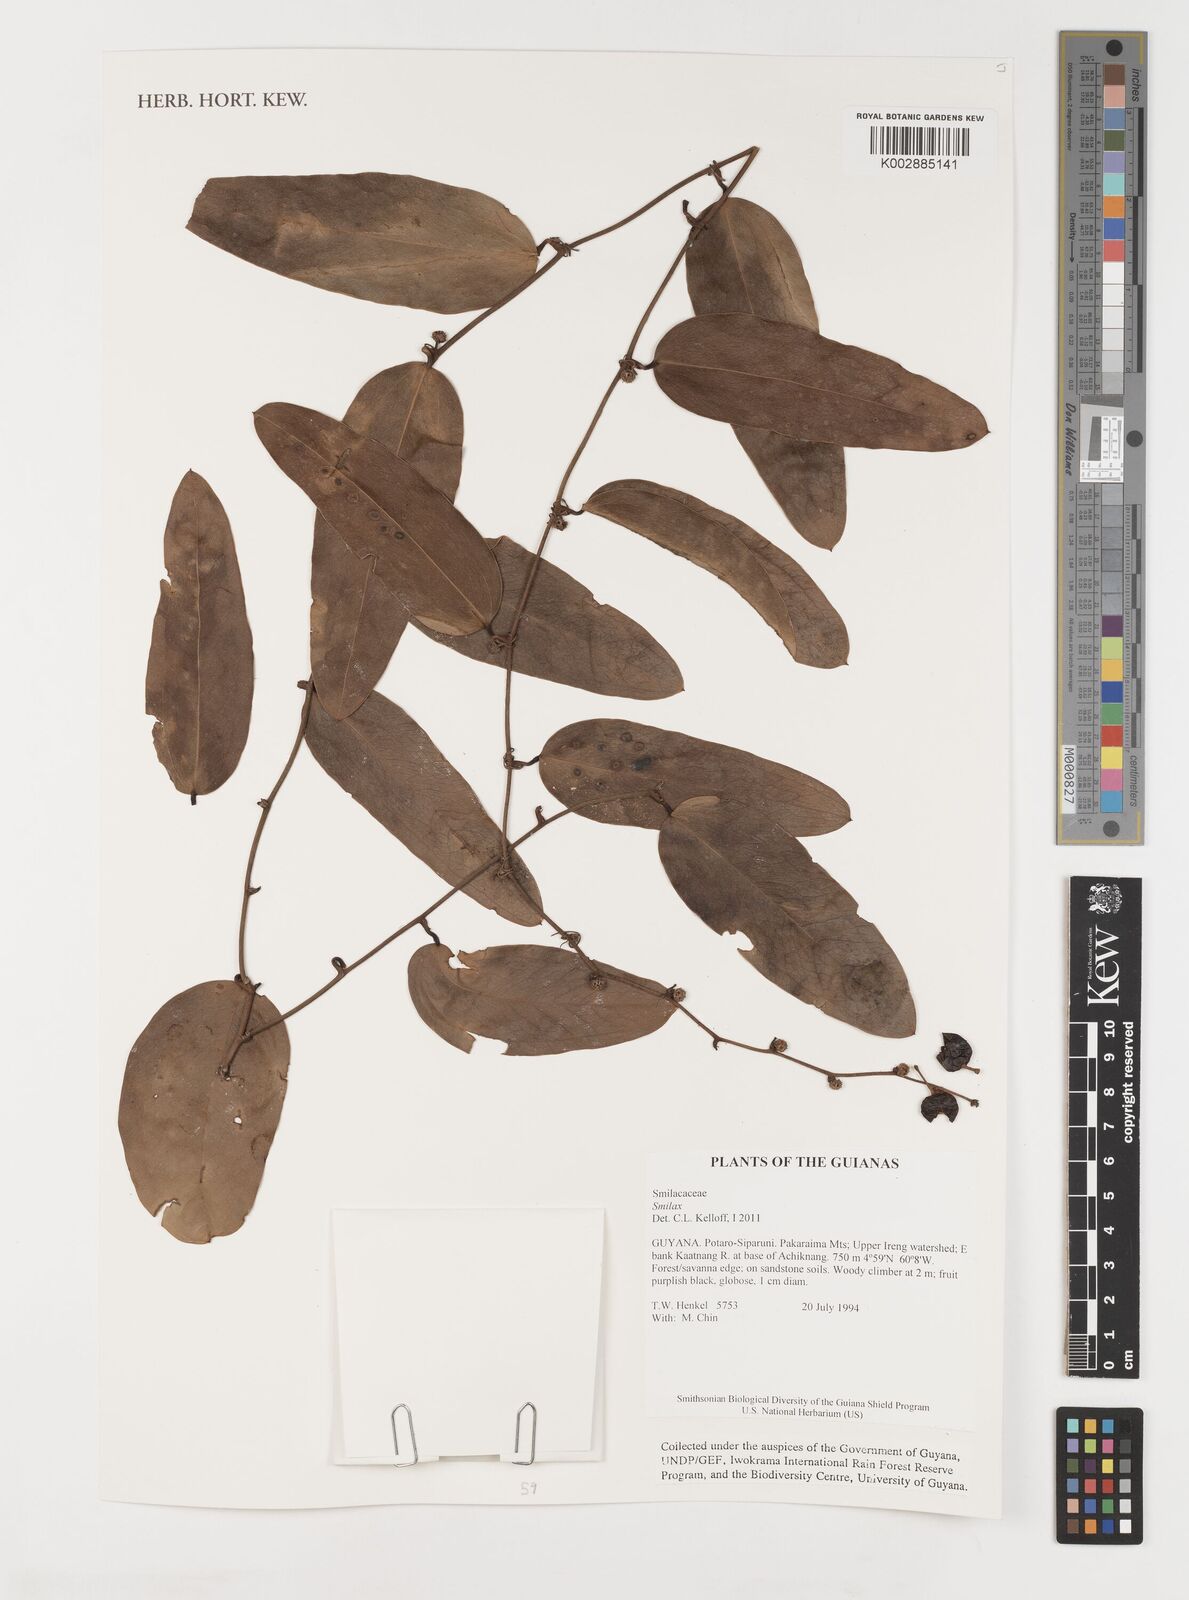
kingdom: Plantae
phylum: Tracheophyta
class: Liliopsida
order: Liliales
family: Smilacaceae
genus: Smilax
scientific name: Smilax
